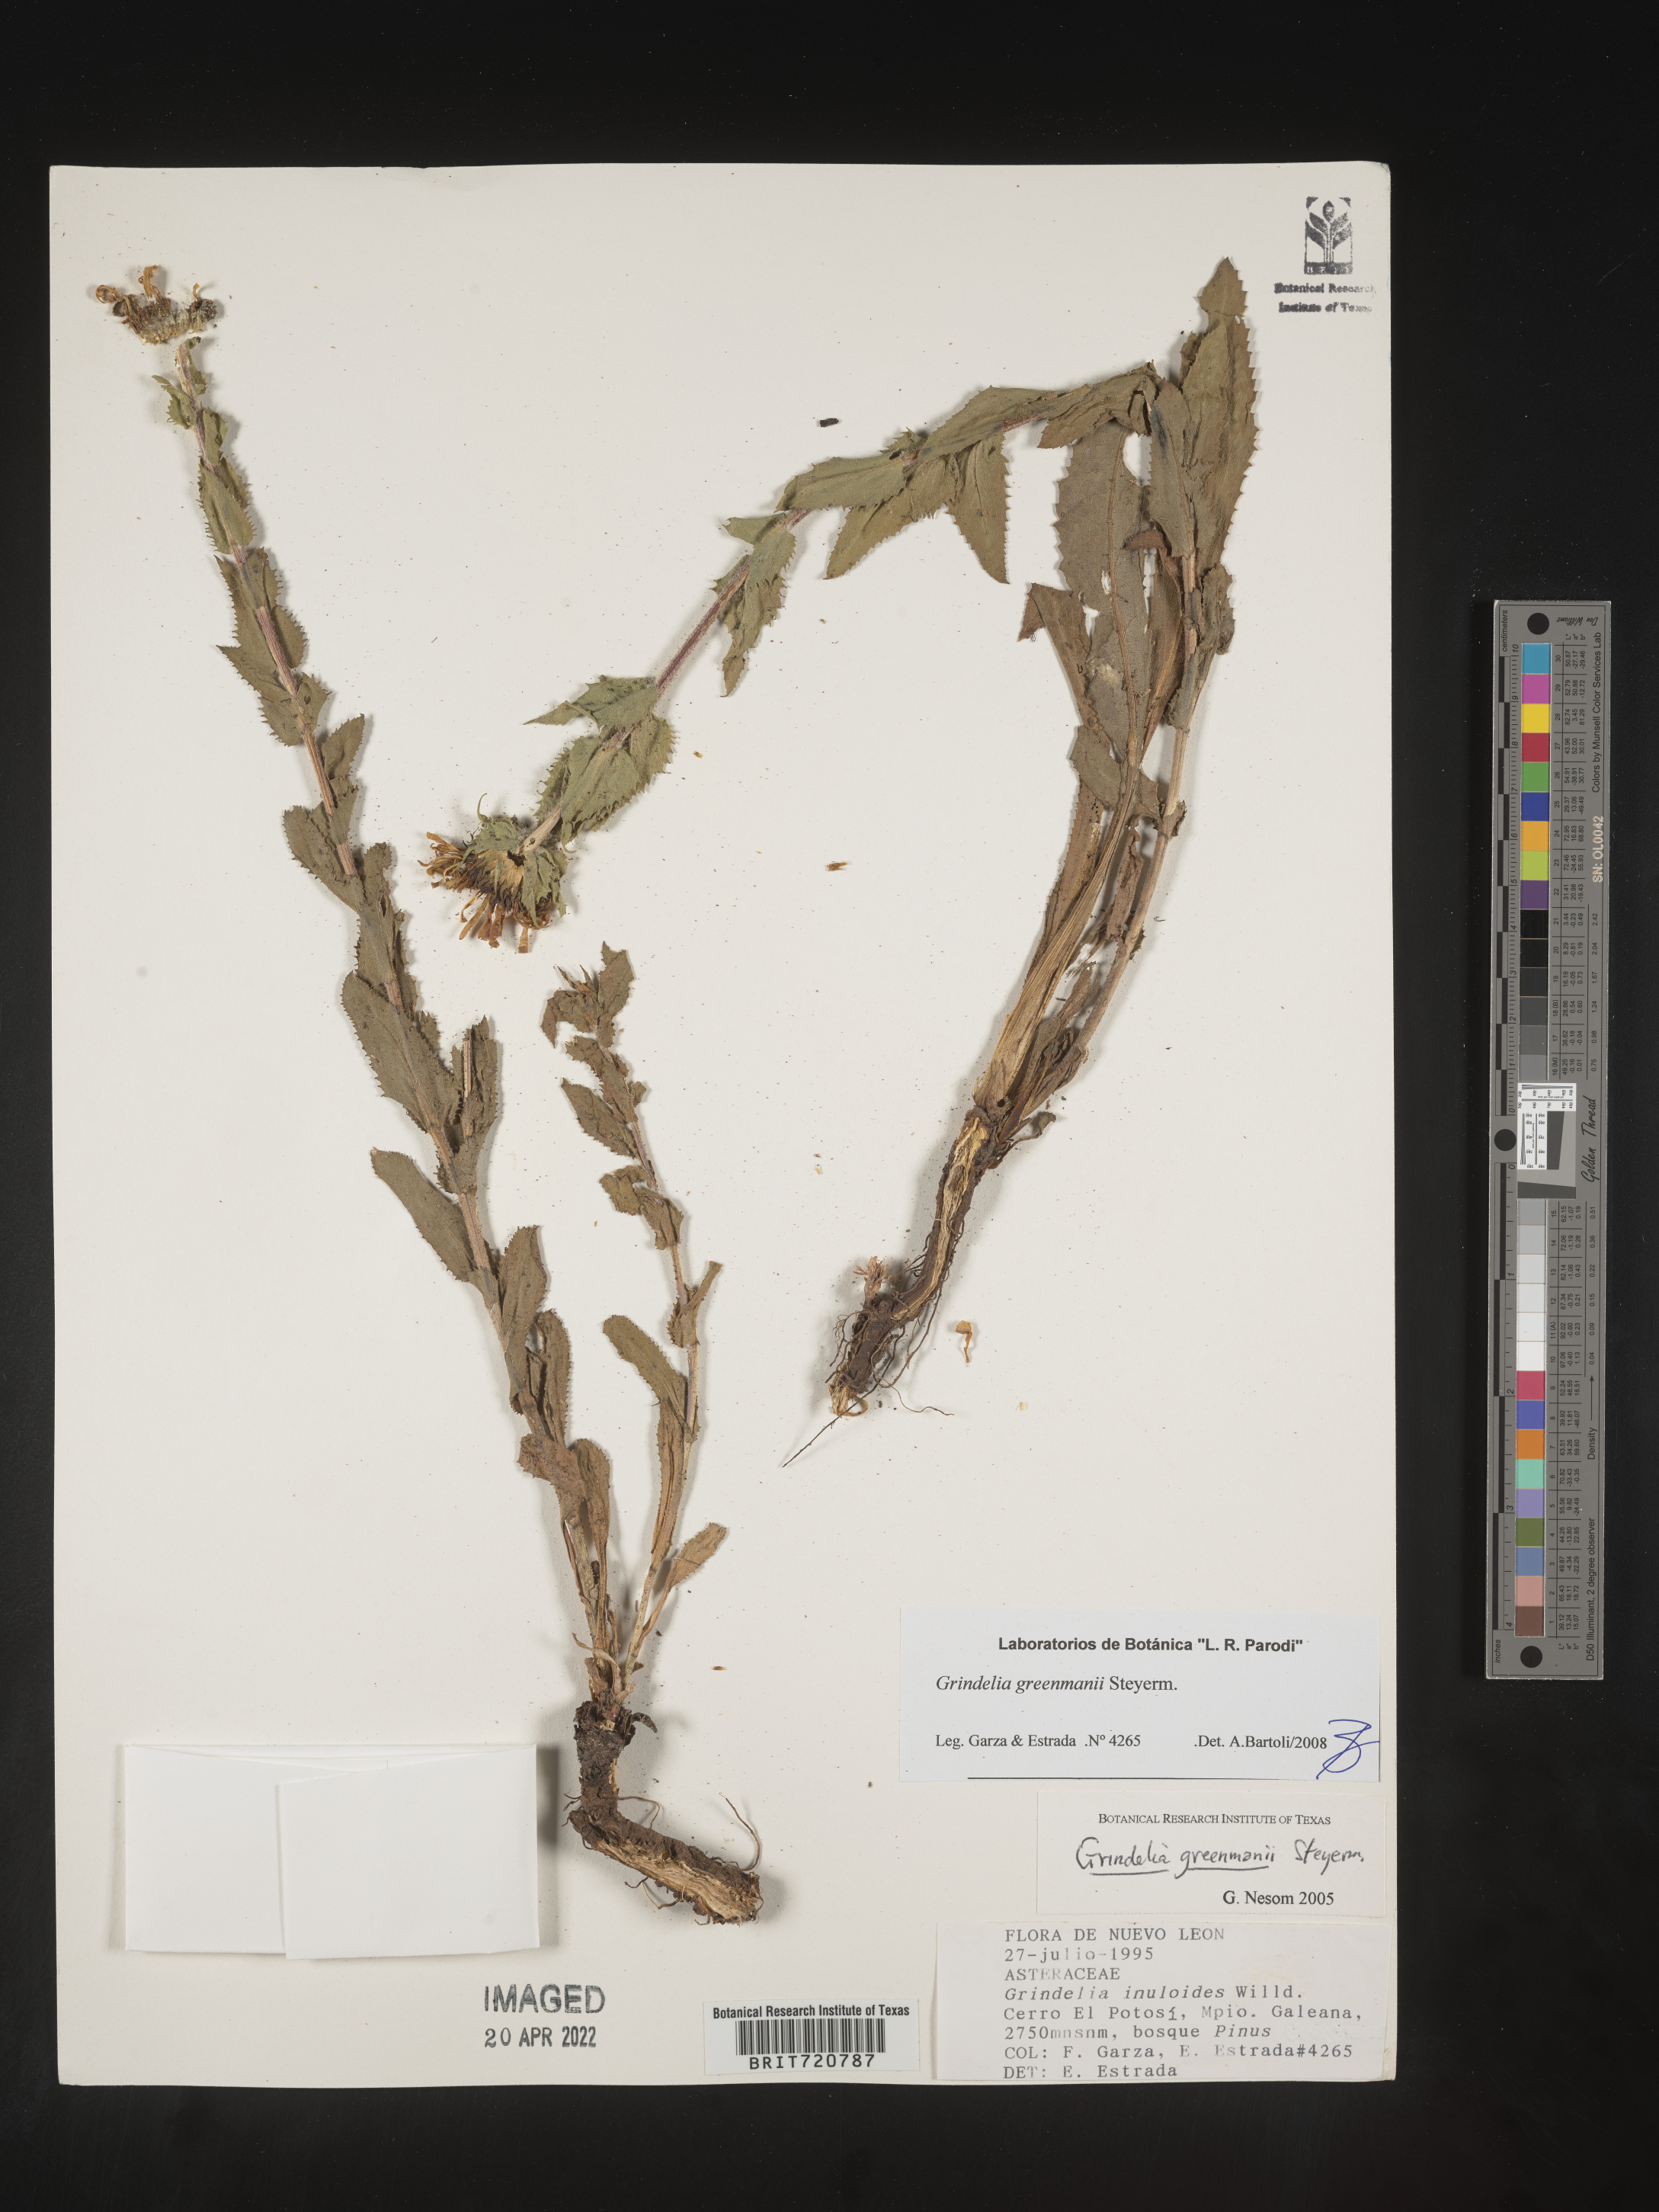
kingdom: Plantae
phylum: Tracheophyta
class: Magnoliopsida
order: Asterales
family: Asteraceae
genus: Grindelia
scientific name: Grindelia
